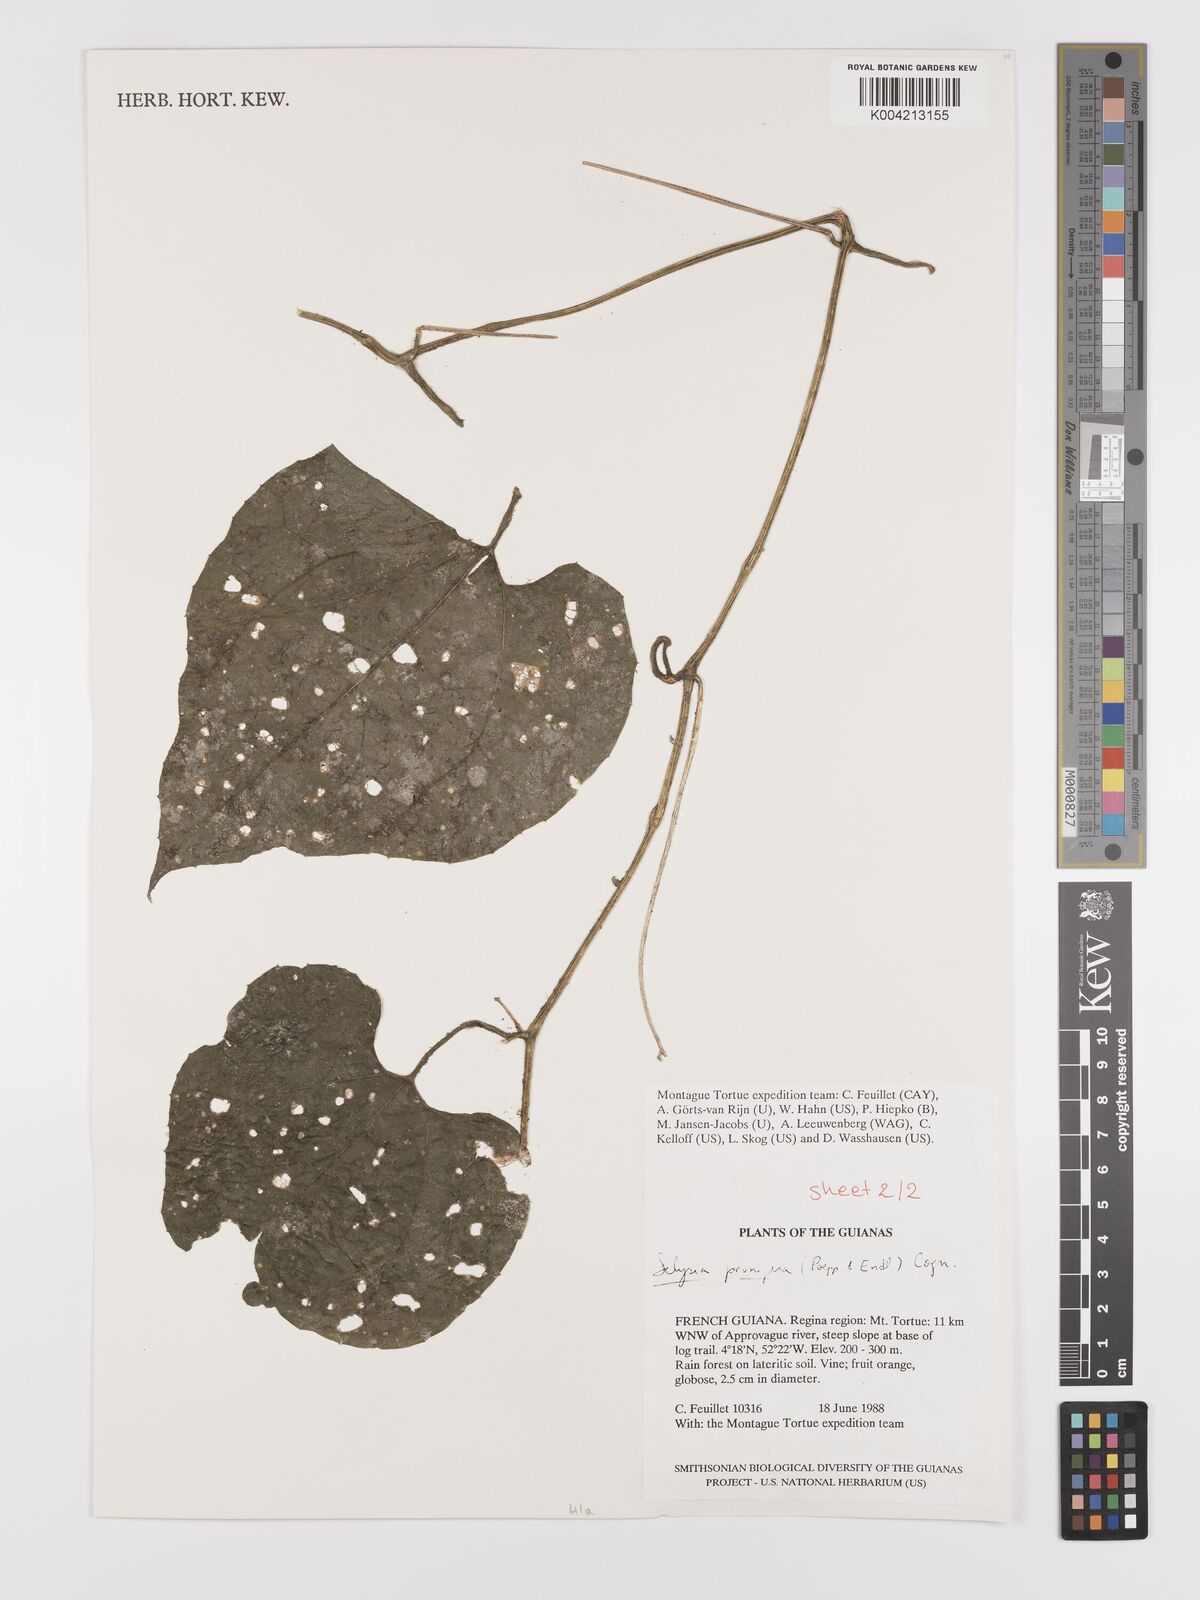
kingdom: Plantae
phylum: Tracheophyta
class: Magnoliopsida
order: Cucurbitales
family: Cucurbitaceae
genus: Cayaponia
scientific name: Cayaponia prunifera
